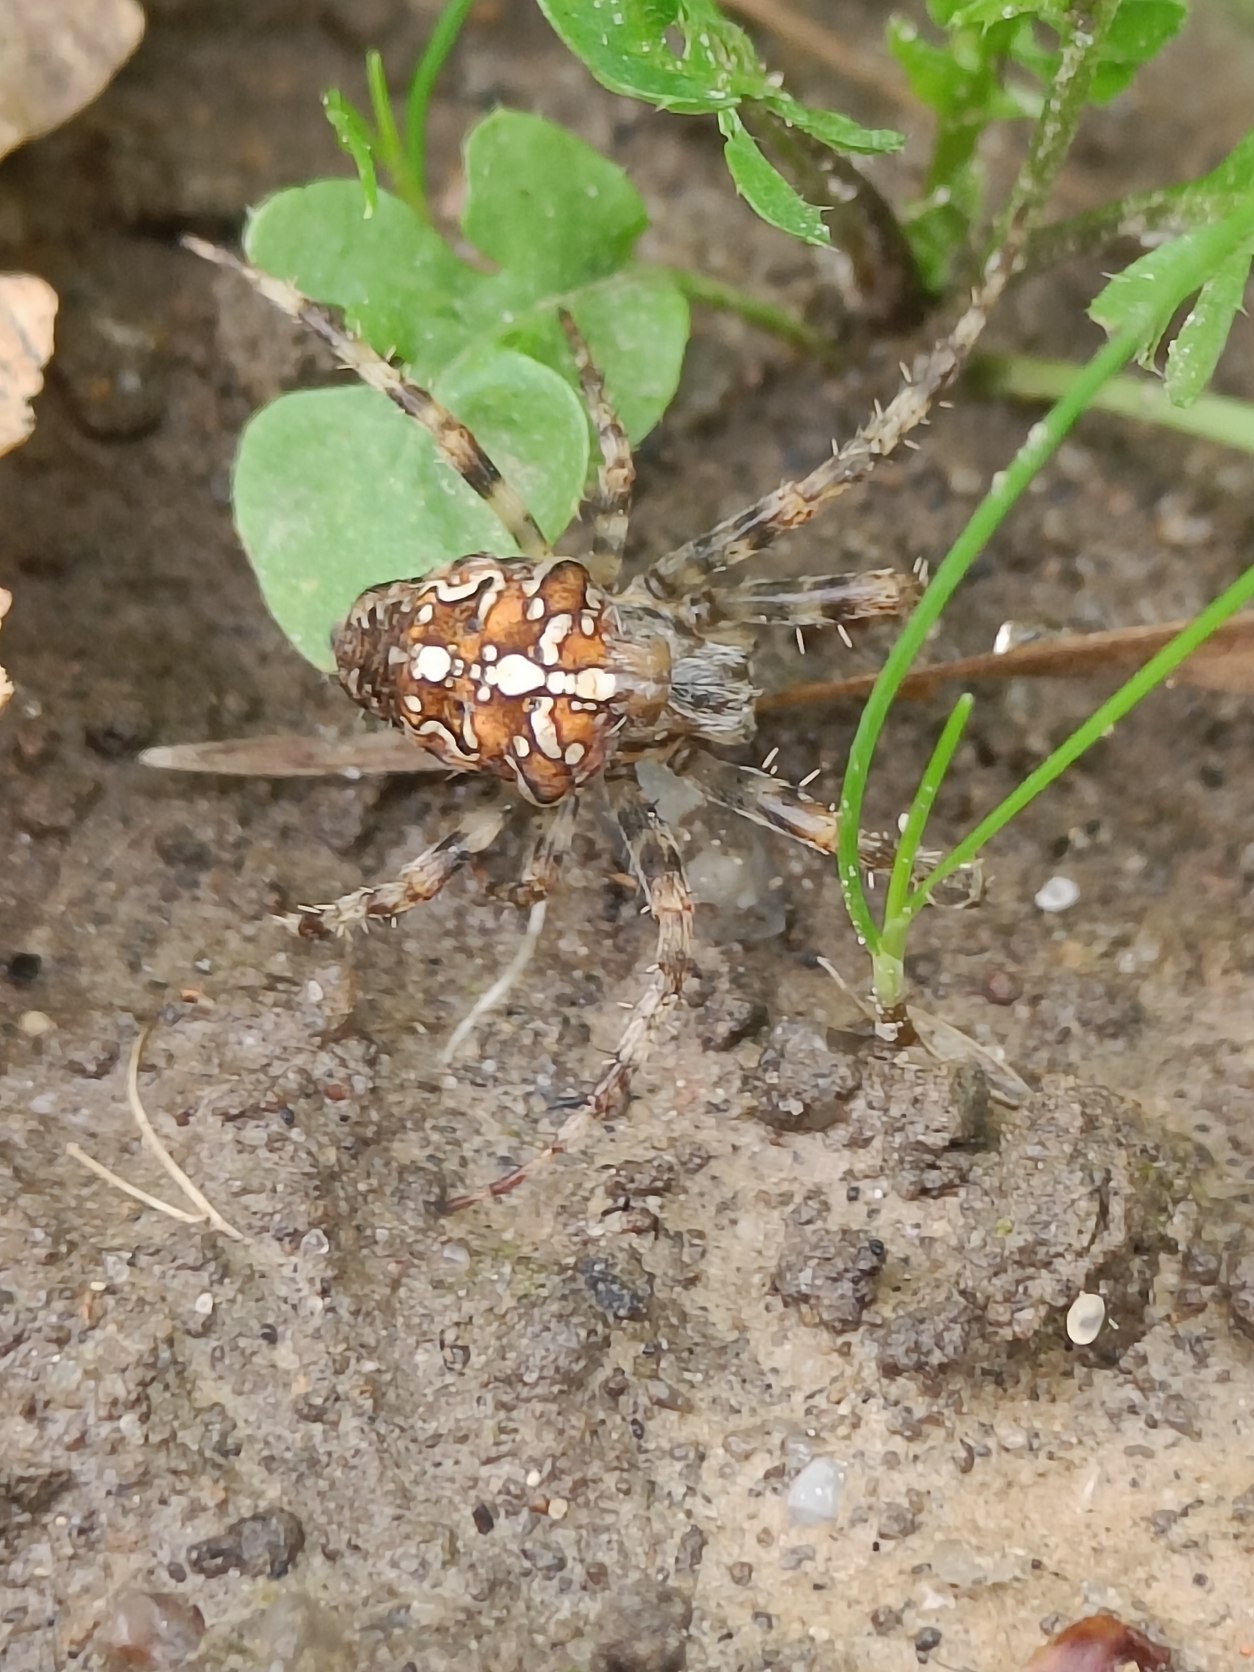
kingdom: Animalia
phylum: Arthropoda
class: Arachnida
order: Araneae
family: Araneidae
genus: Araneus
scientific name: Araneus diadematus
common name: Korsedderkop
